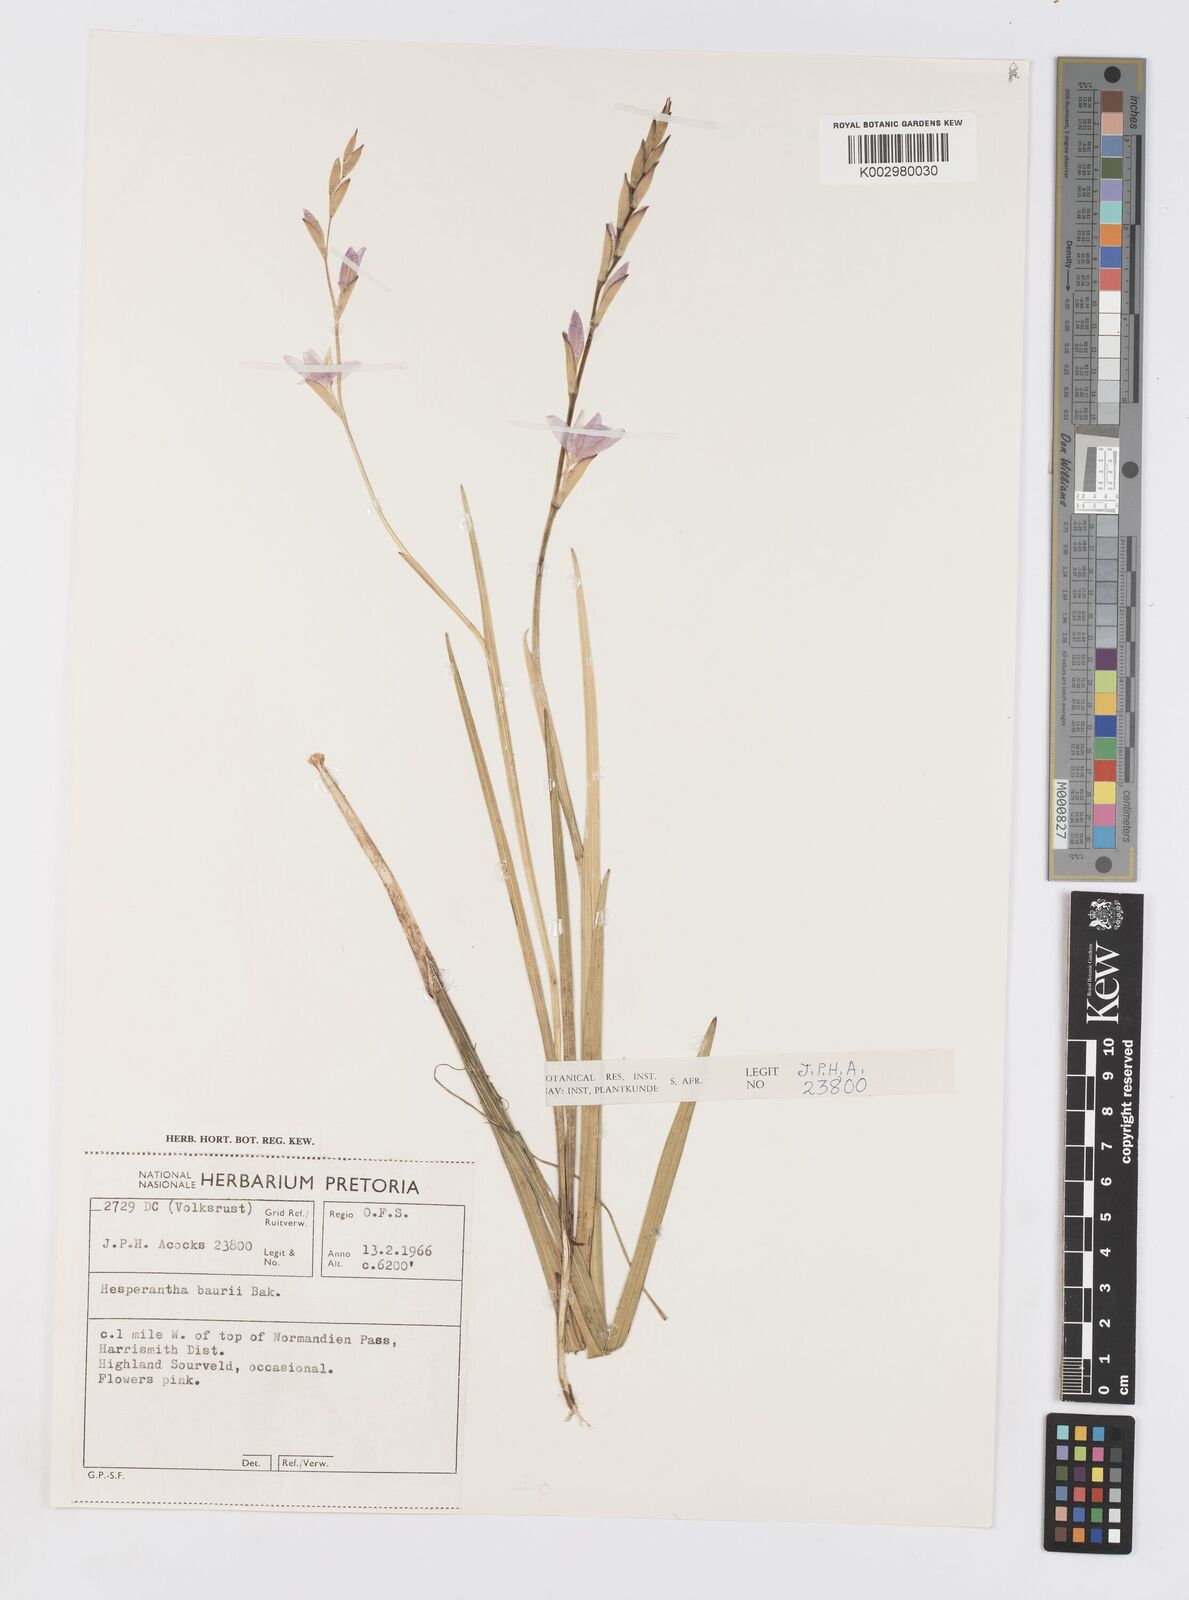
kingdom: Plantae
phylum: Tracheophyta
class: Liliopsida
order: Asparagales
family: Iridaceae
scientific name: Iridaceae
